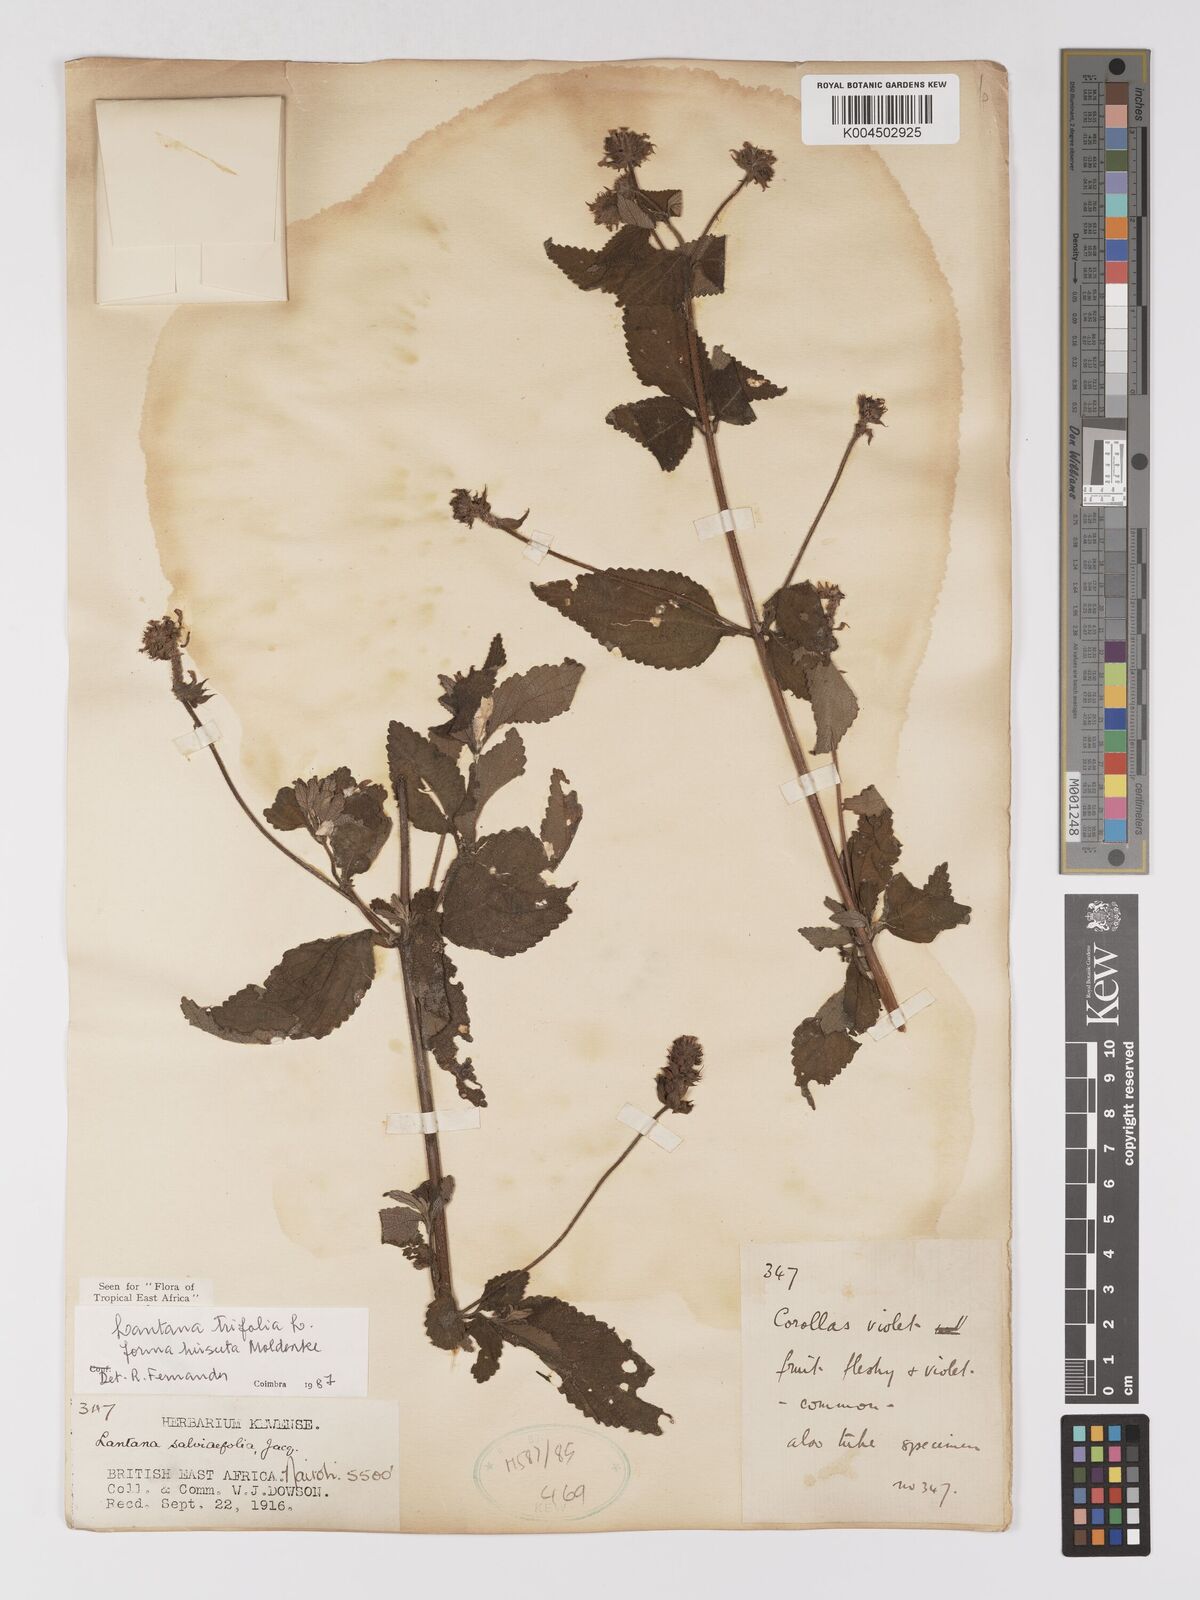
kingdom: Plantae
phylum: Tracheophyta
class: Magnoliopsida
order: Lamiales
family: Verbenaceae
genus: Lantana
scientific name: Lantana trifolia
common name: Sweet-sage
